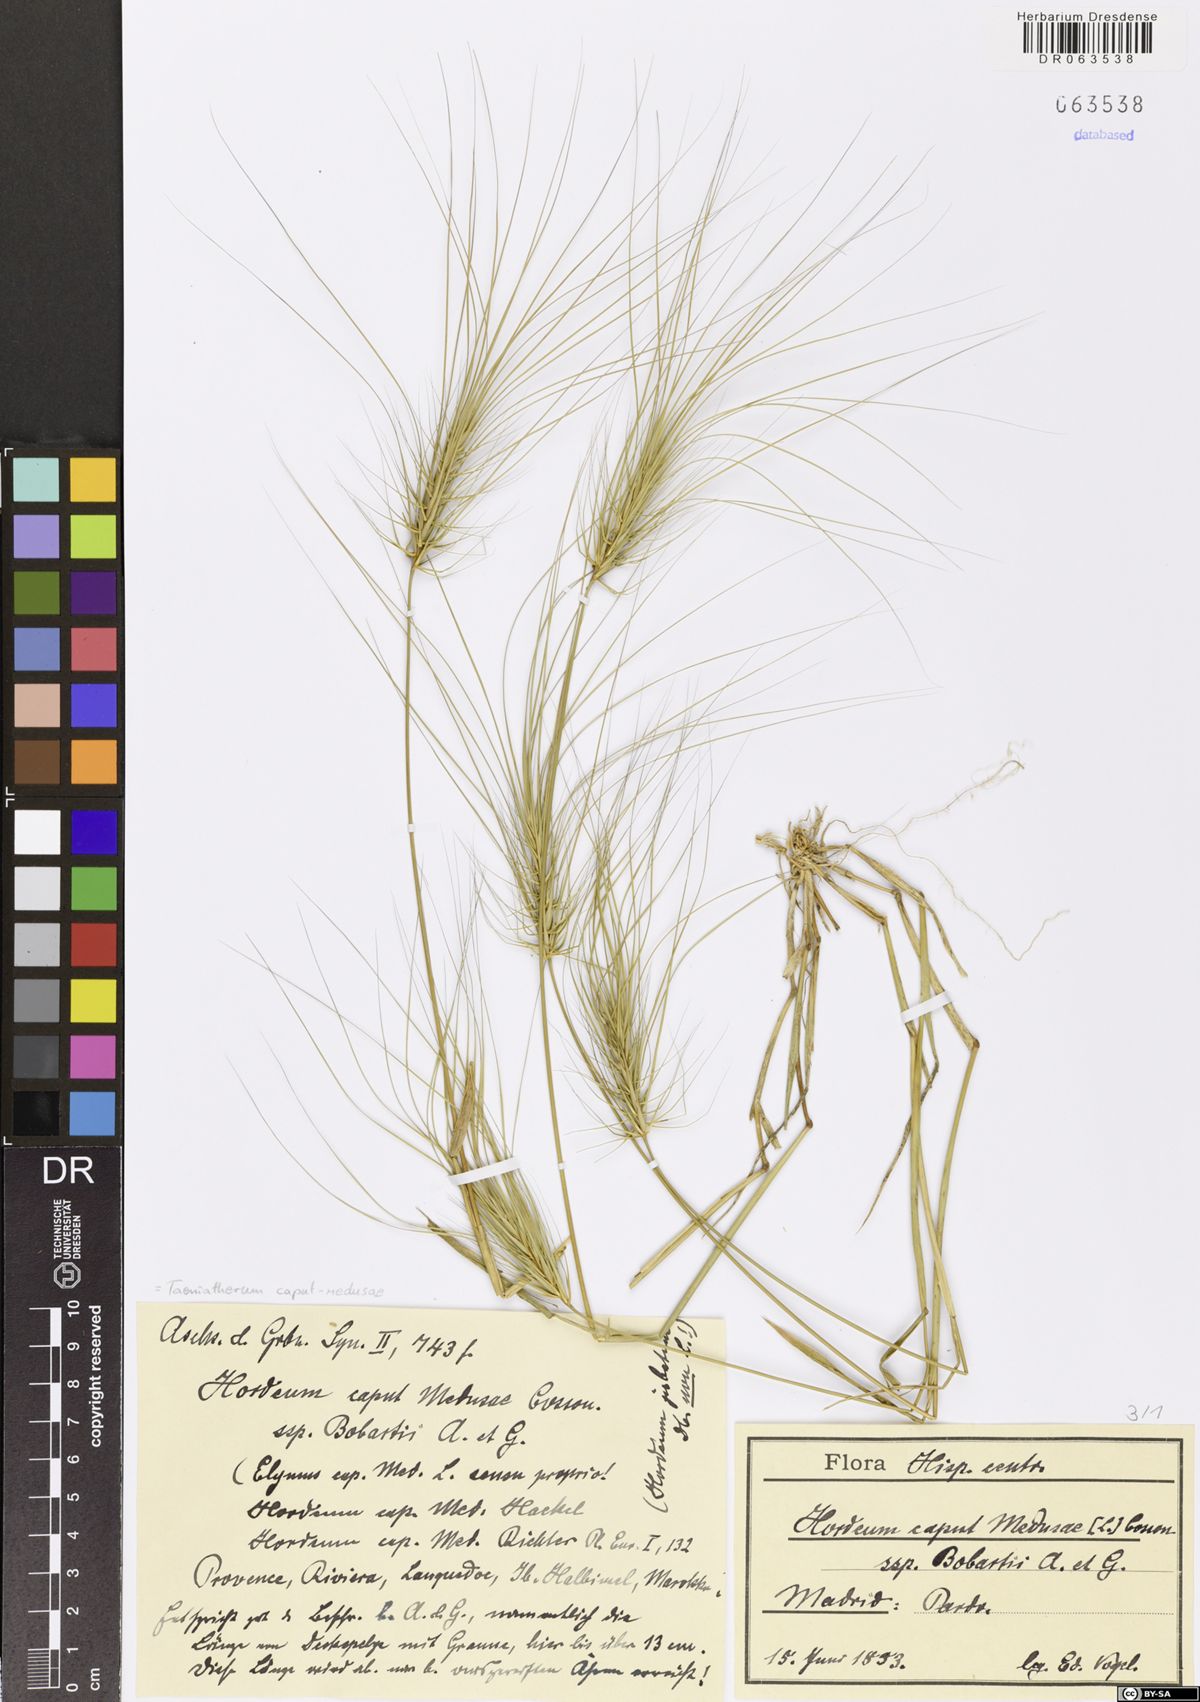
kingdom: Plantae
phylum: Tracheophyta
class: Liliopsida
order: Poales
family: Poaceae
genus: Taeniatherum
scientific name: Taeniatherum caput-medusae
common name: Medusahead
